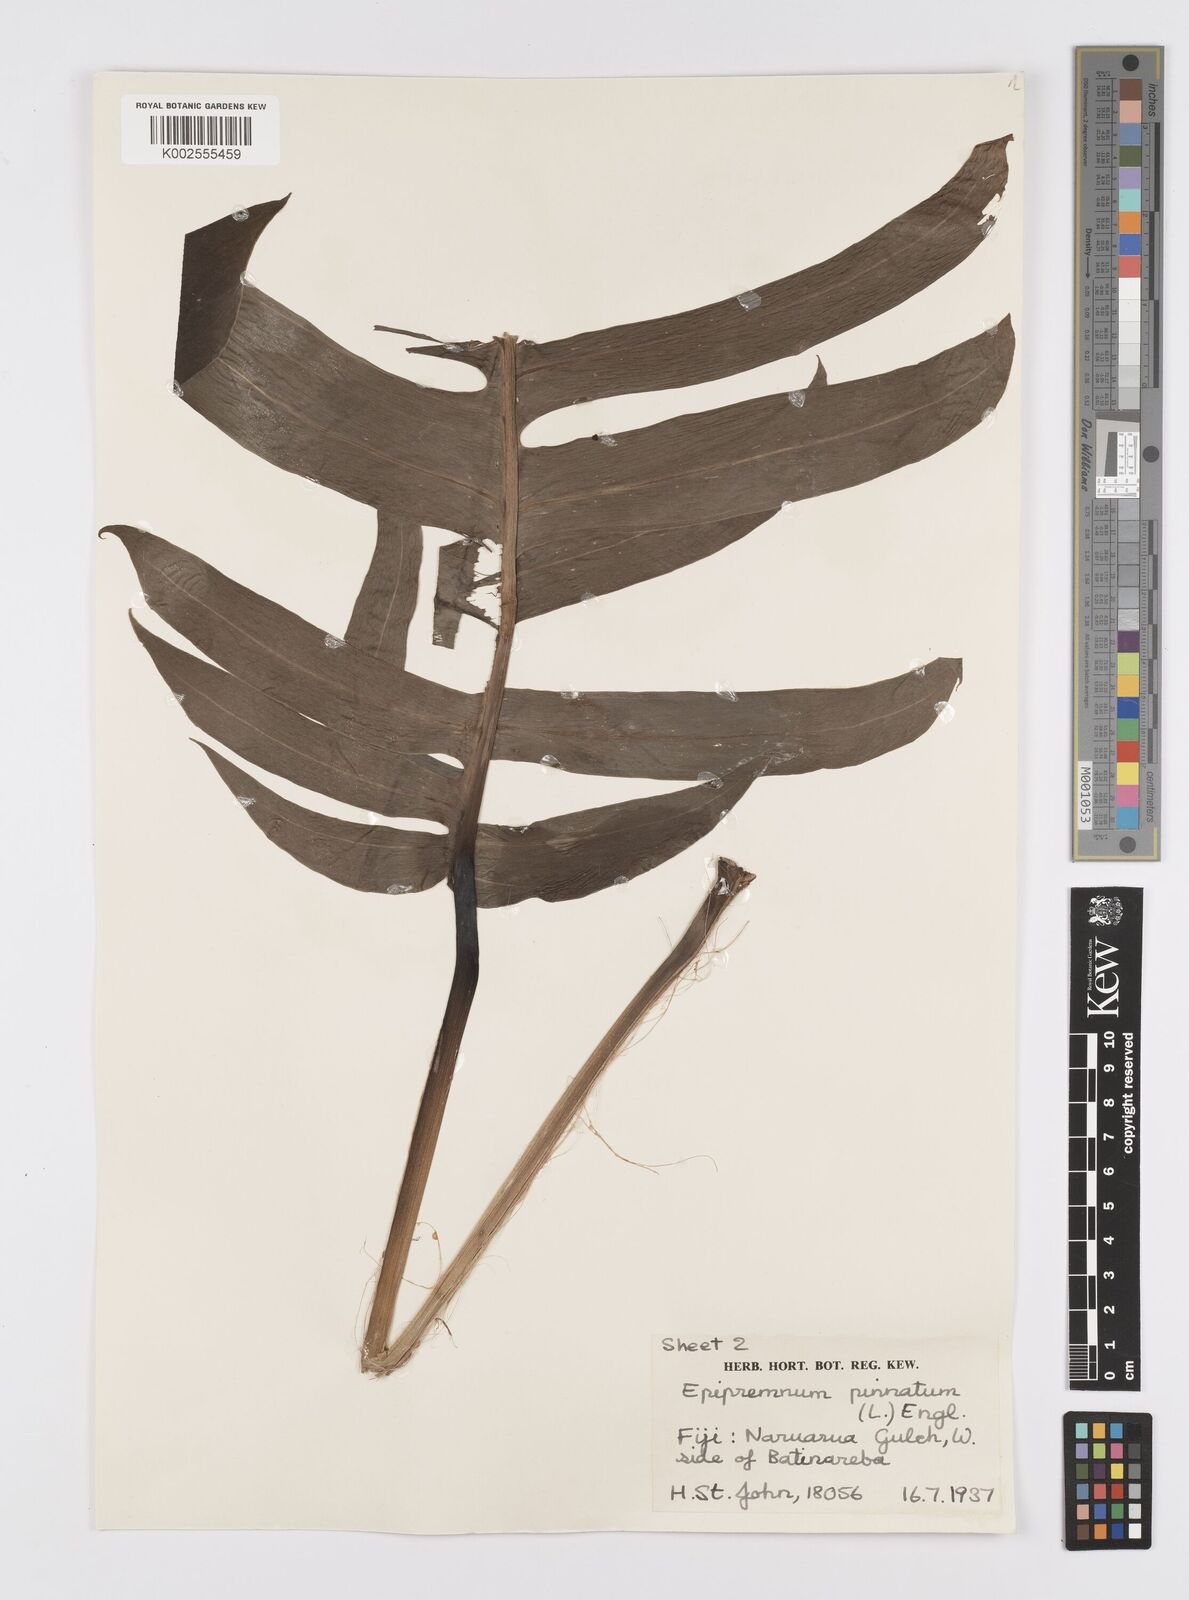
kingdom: Plantae
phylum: Tracheophyta
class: Liliopsida
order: Alismatales
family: Araceae
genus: Epipremnum
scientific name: Epipremnum pinnatum
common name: Centipede tongavine
